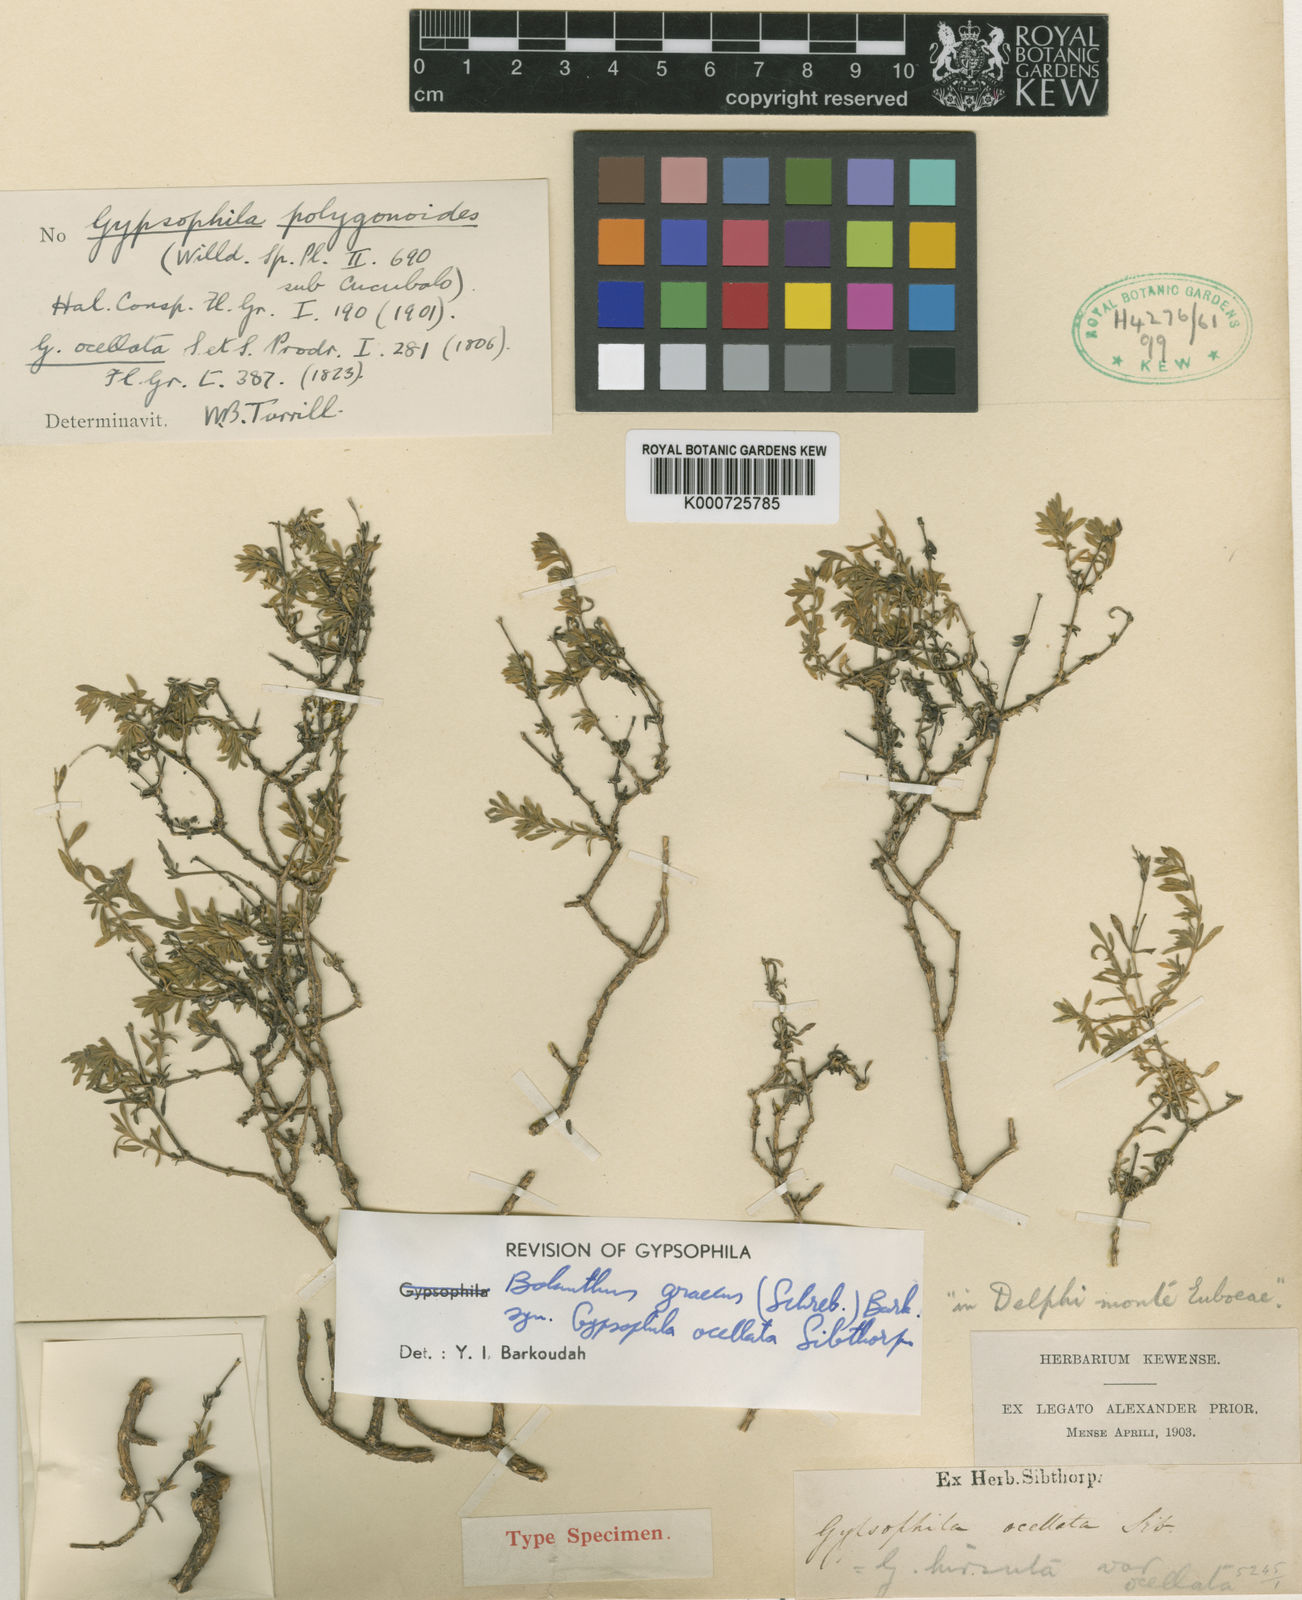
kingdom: Plantae
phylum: Tracheophyta
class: Magnoliopsida
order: Caryophyllales
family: Caryophyllaceae
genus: Graecobolanthus
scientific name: Graecobolanthus graecus
